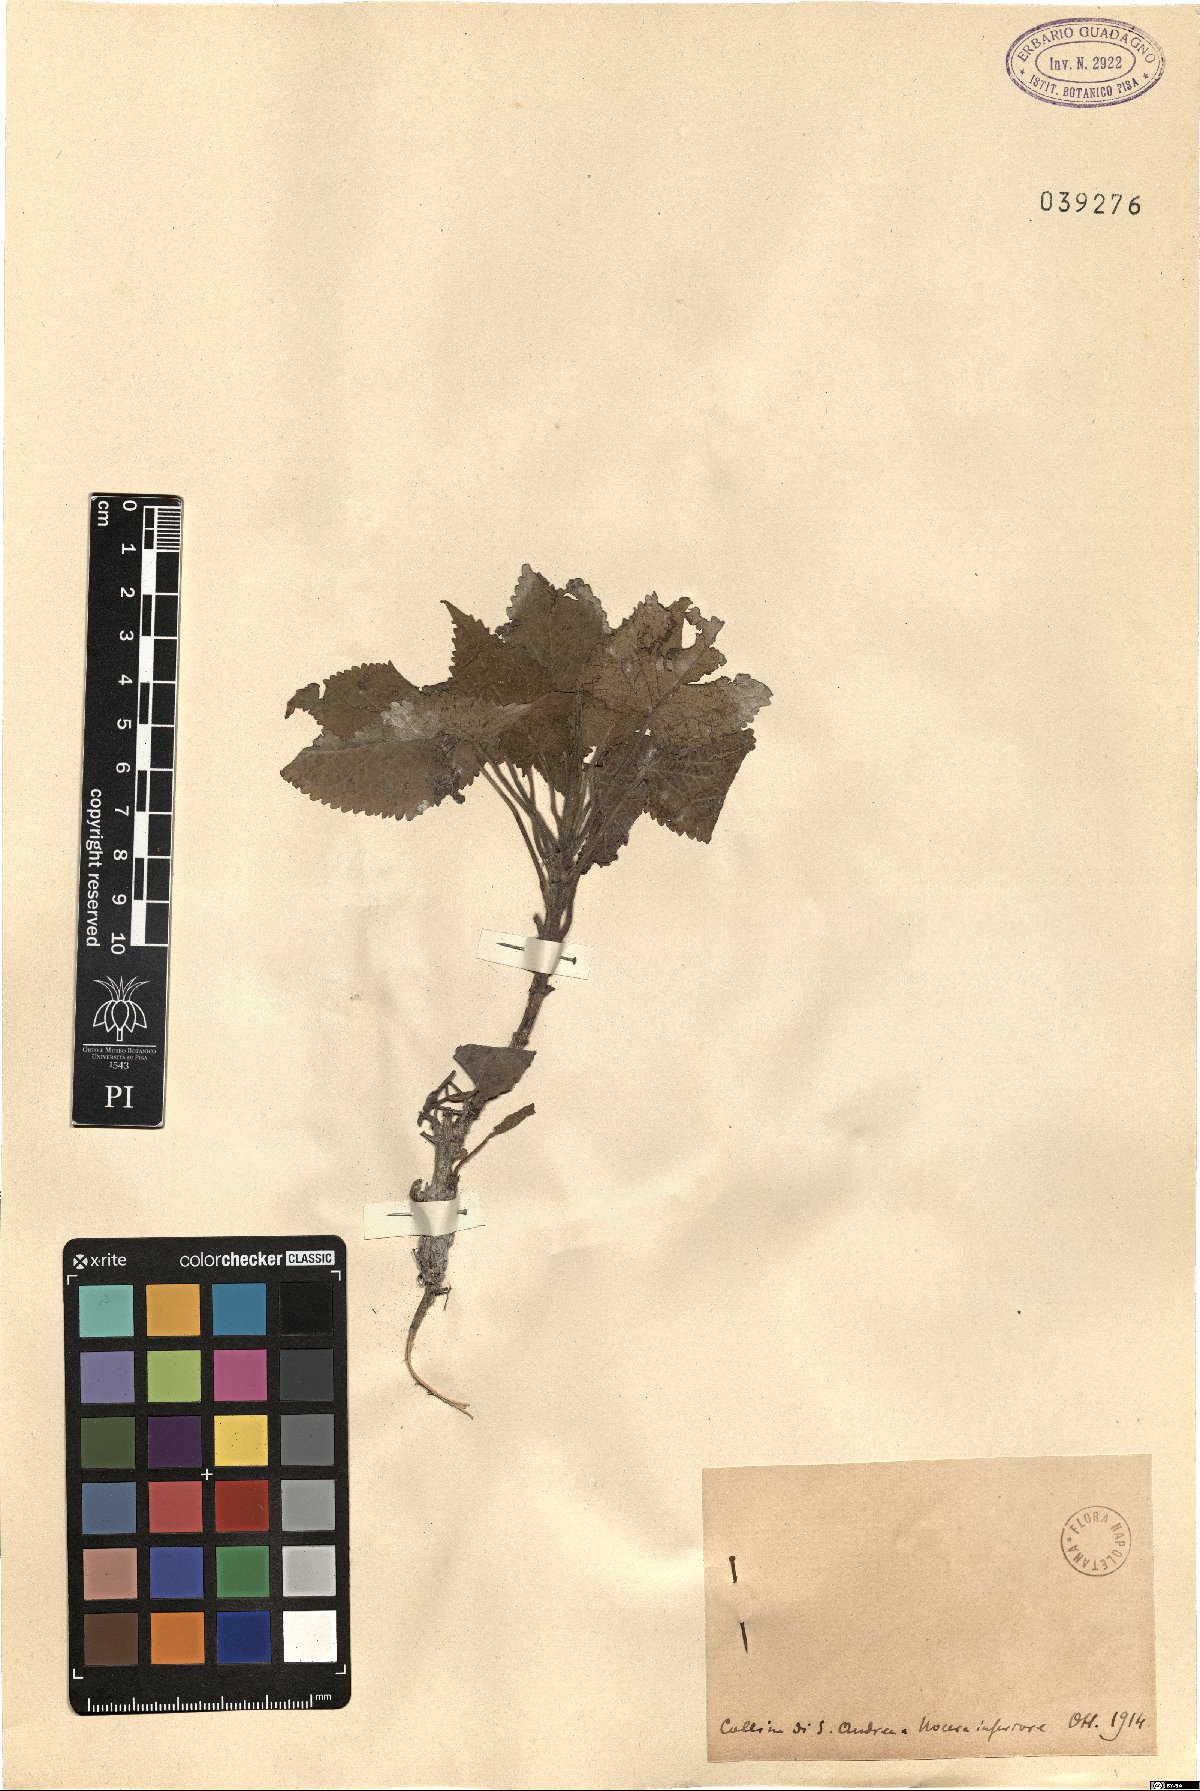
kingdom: Plantae
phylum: Tracheophyta
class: Magnoliopsida
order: Lamiales
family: Lamiaceae
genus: Salvia
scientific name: Salvia
